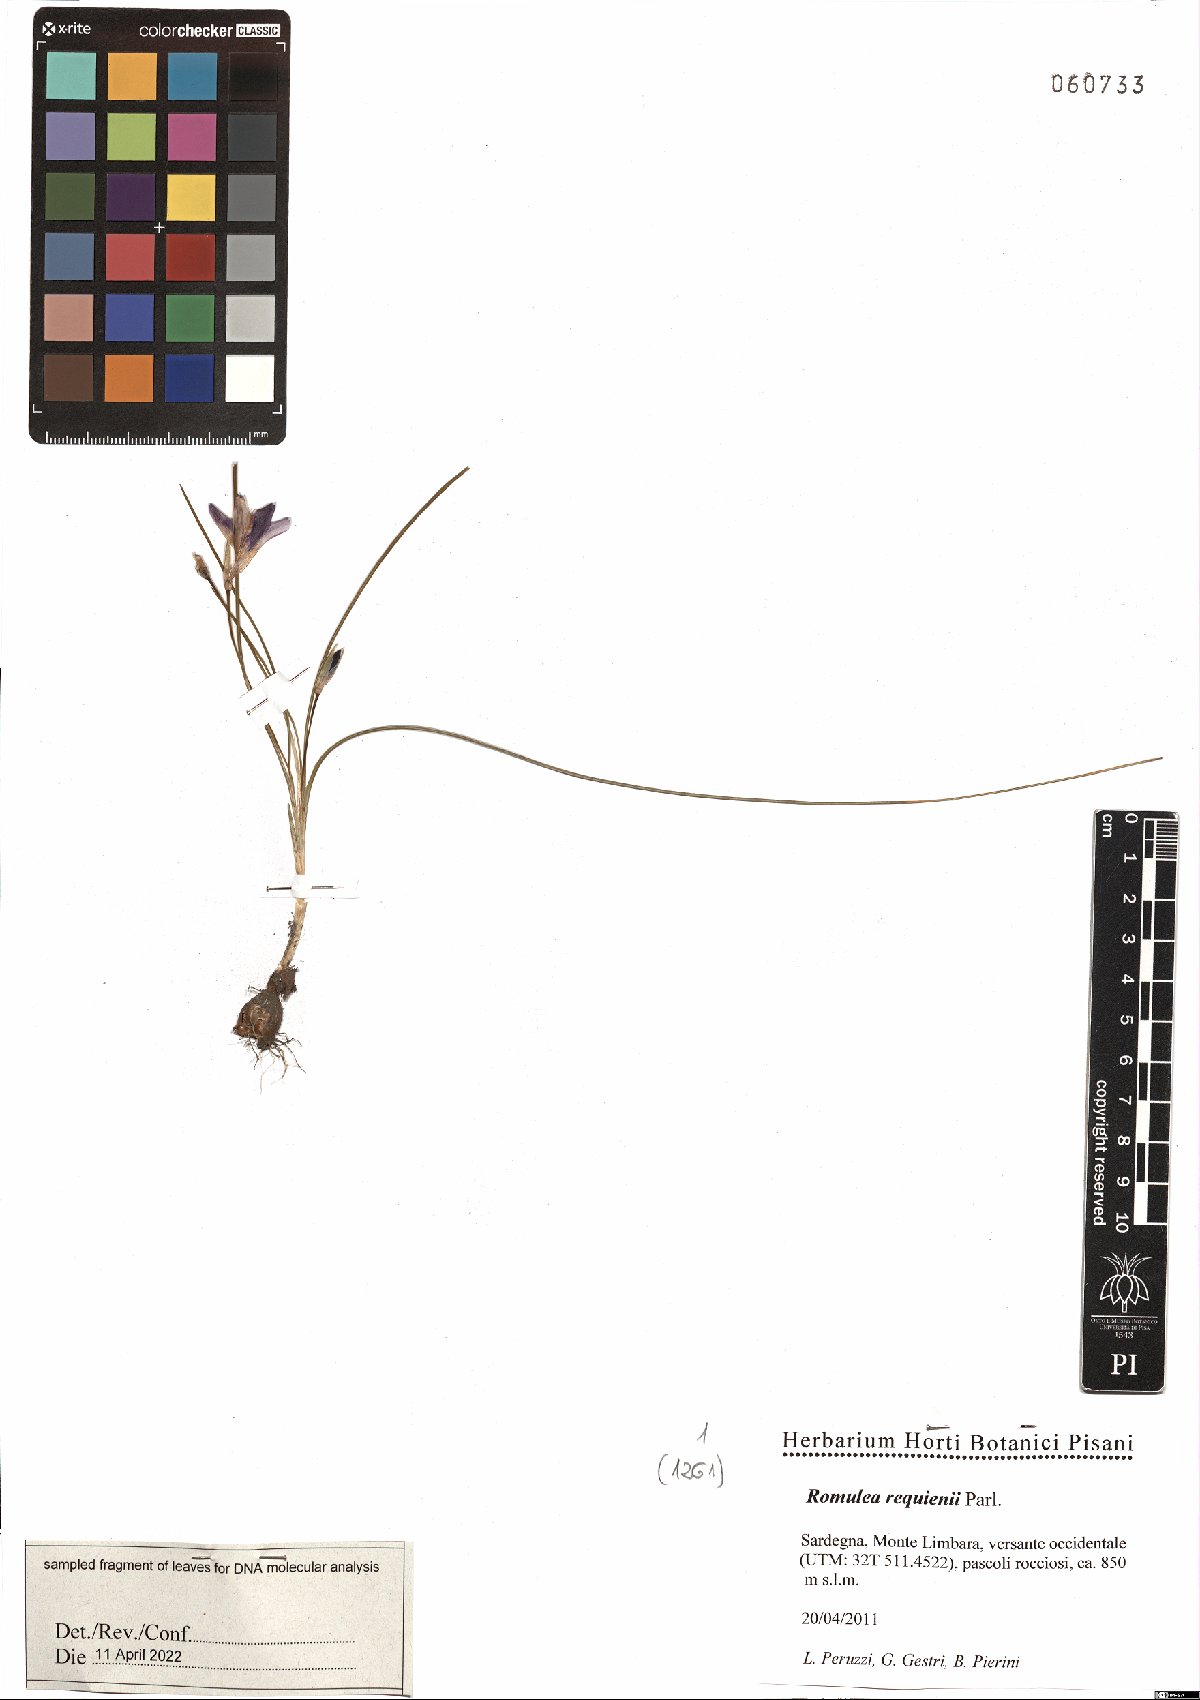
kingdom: Plantae
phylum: Tracheophyta
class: Liliopsida
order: Asparagales
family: Iridaceae
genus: Romulea
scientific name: Romulea requienii
